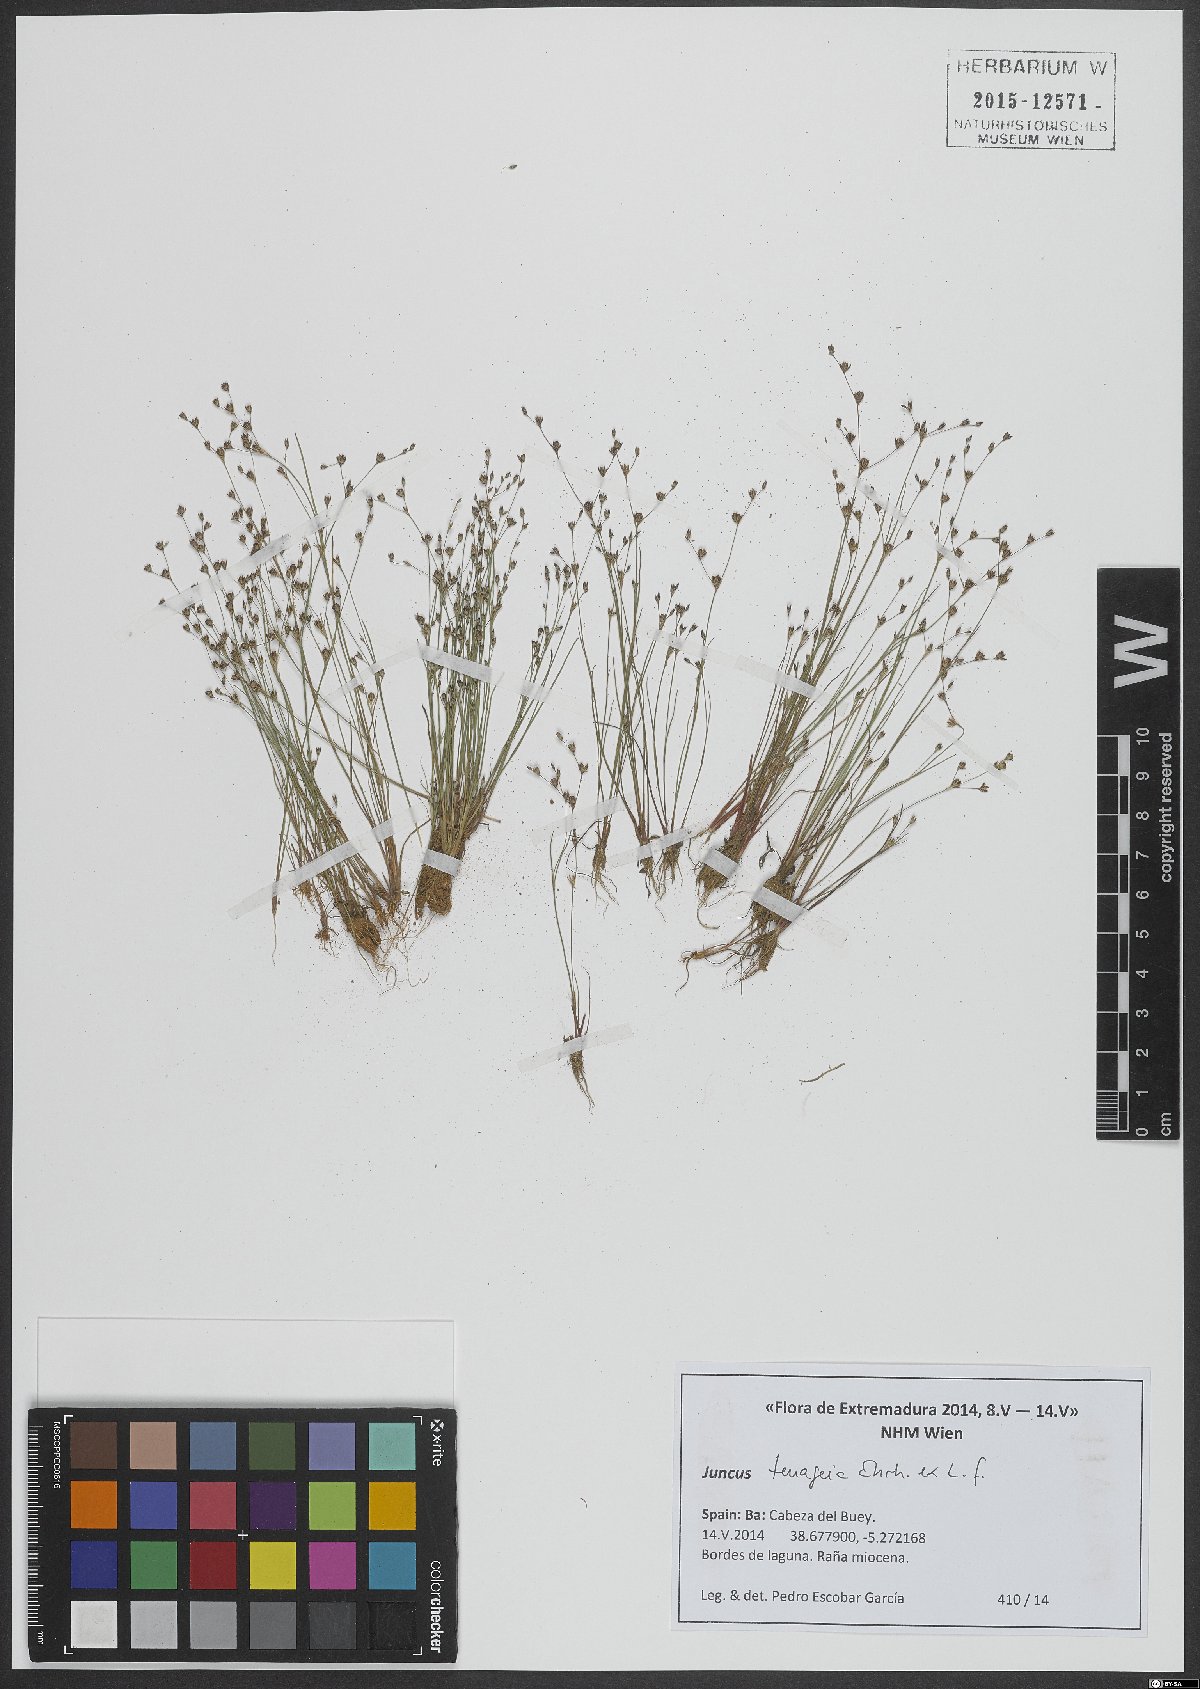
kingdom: Plantae
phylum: Tracheophyta
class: Liliopsida
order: Poales
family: Juncaceae
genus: Juncus
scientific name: Juncus tenageia
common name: Sand rush
